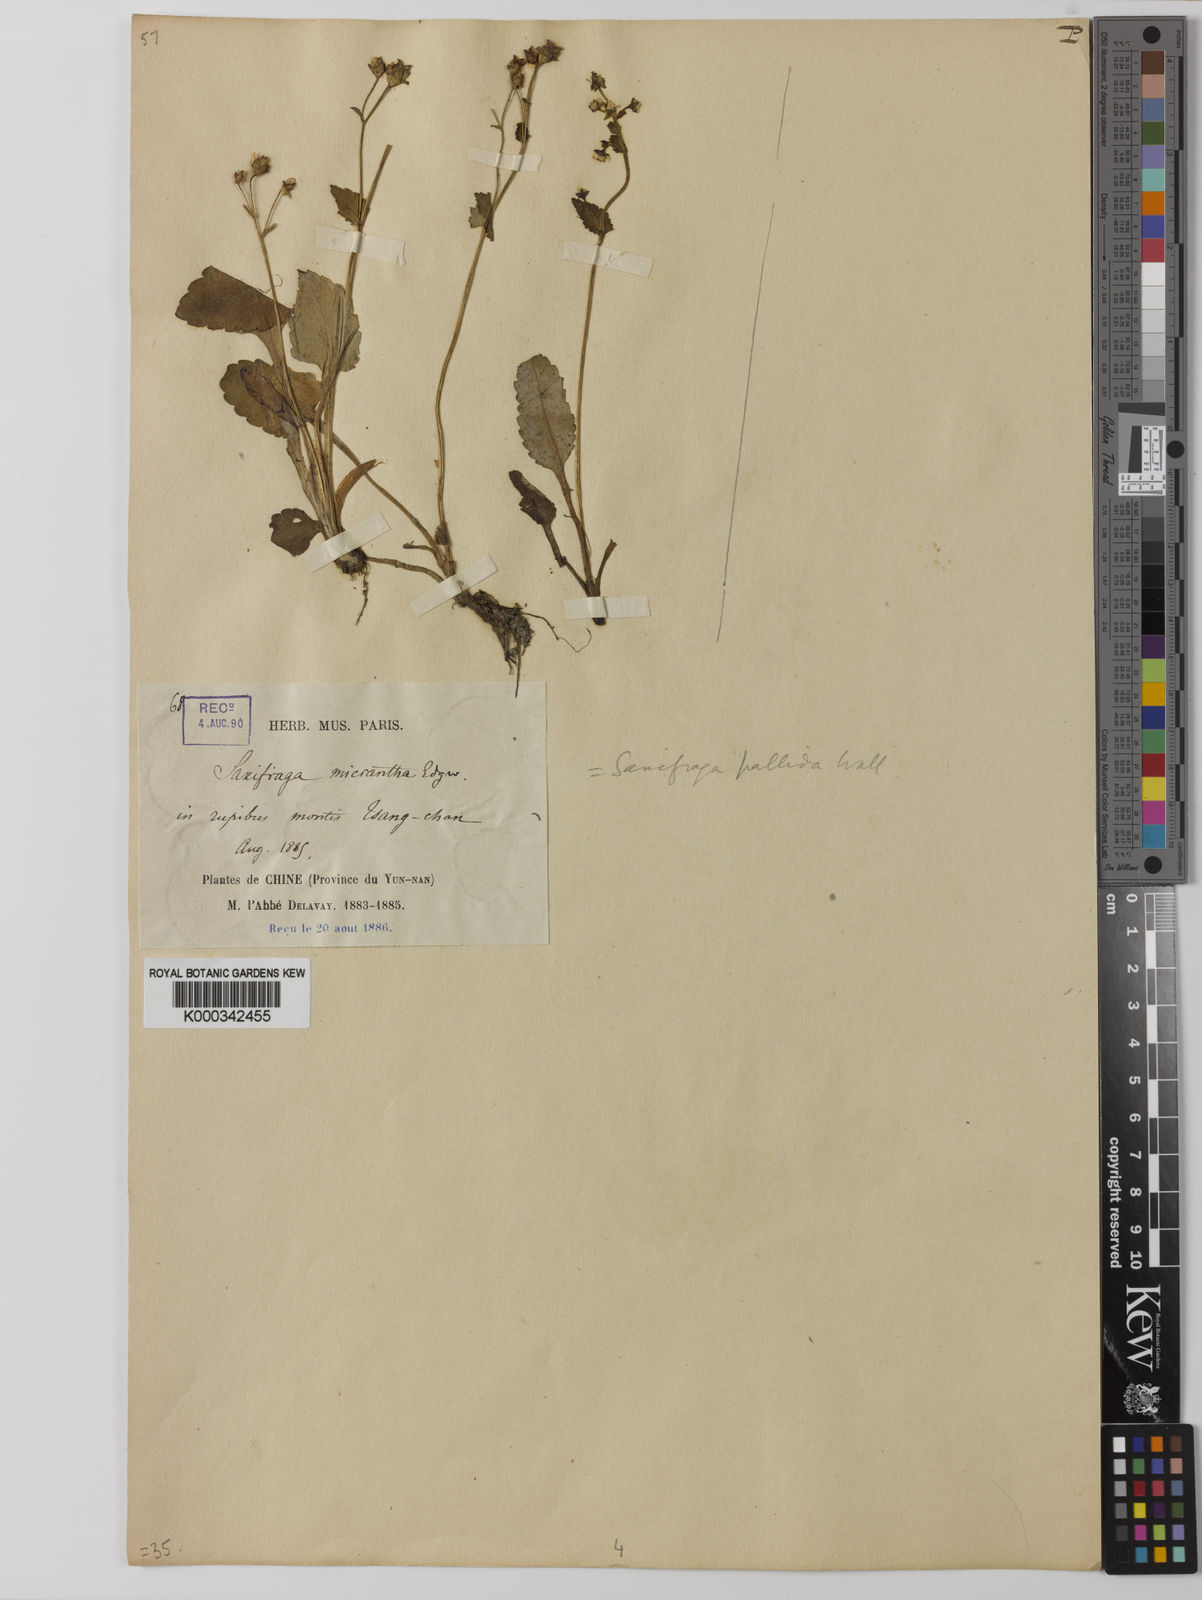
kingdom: Plantae
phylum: Tracheophyta
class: Magnoliopsida
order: Saxifragales
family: Saxifragaceae
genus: Saxifraga
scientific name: Saxifraga
